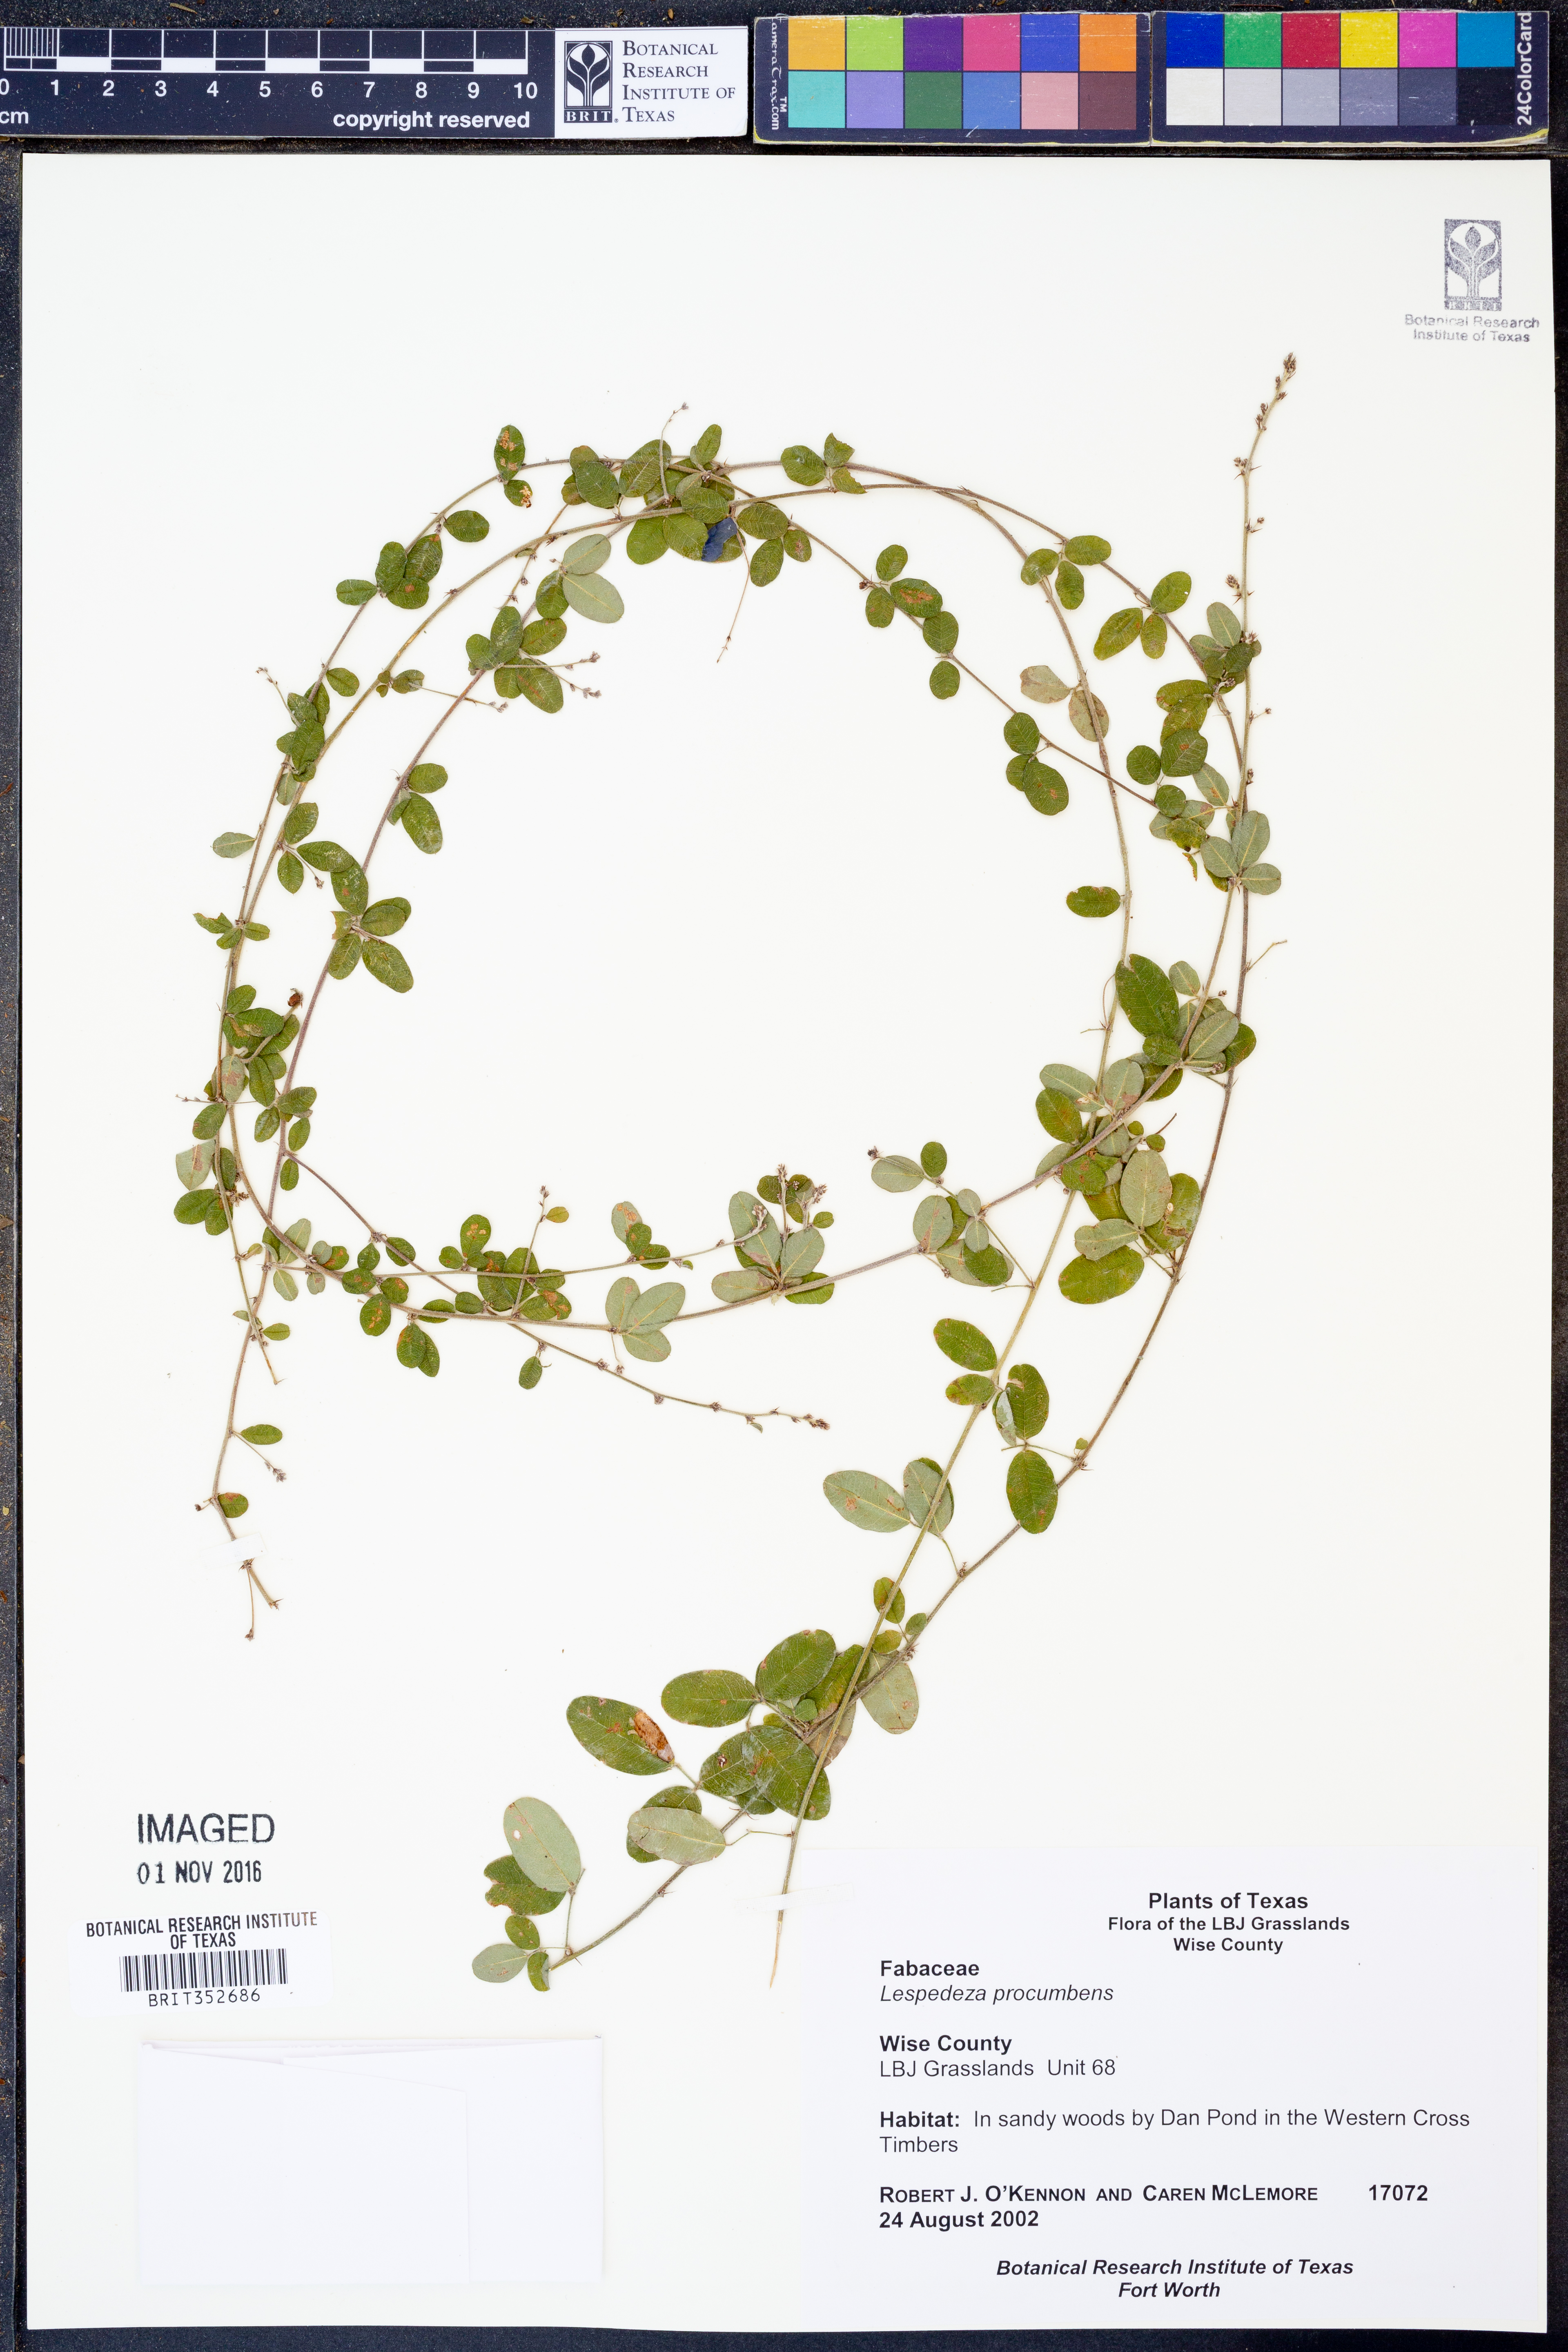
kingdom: Plantae
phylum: Tracheophyta
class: Magnoliopsida
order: Fabales
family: Fabaceae
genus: Lespedeza
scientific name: Lespedeza procumbens
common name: Downy trailing bush-clover
